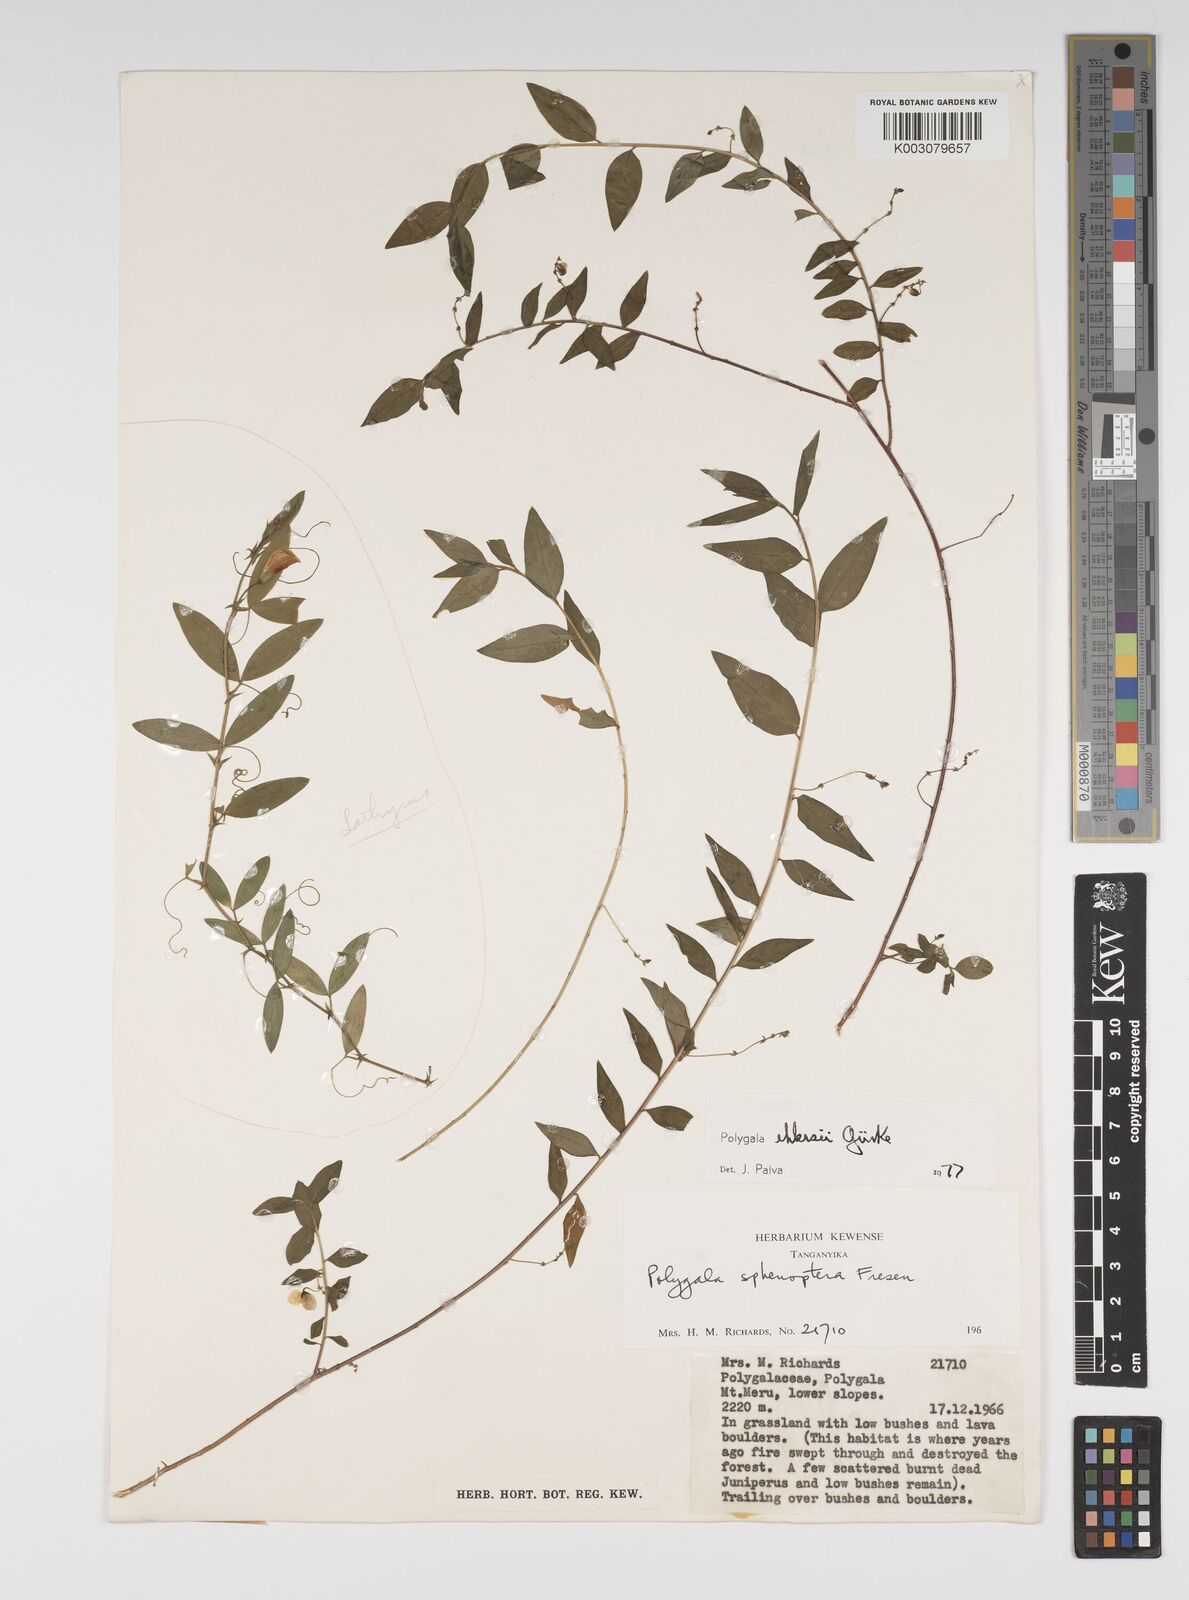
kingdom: Plantae
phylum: Tracheophyta
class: Magnoliopsida
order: Fabales
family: Polygalaceae
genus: Polygala
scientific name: Polygala ehlersii
